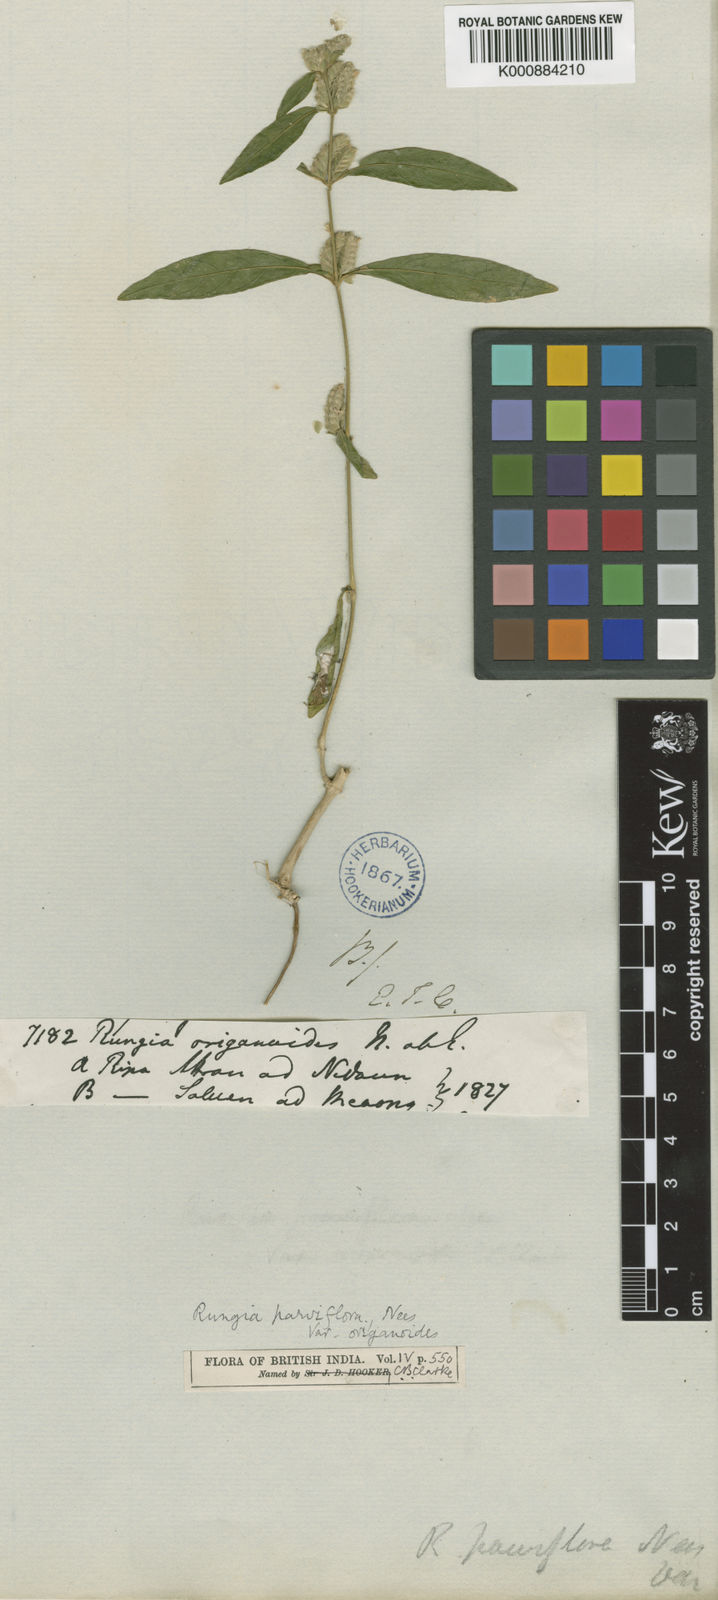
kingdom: Plantae
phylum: Tracheophyta
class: Magnoliopsida
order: Lamiales
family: Acanthaceae
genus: Justicia
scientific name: Justicia
